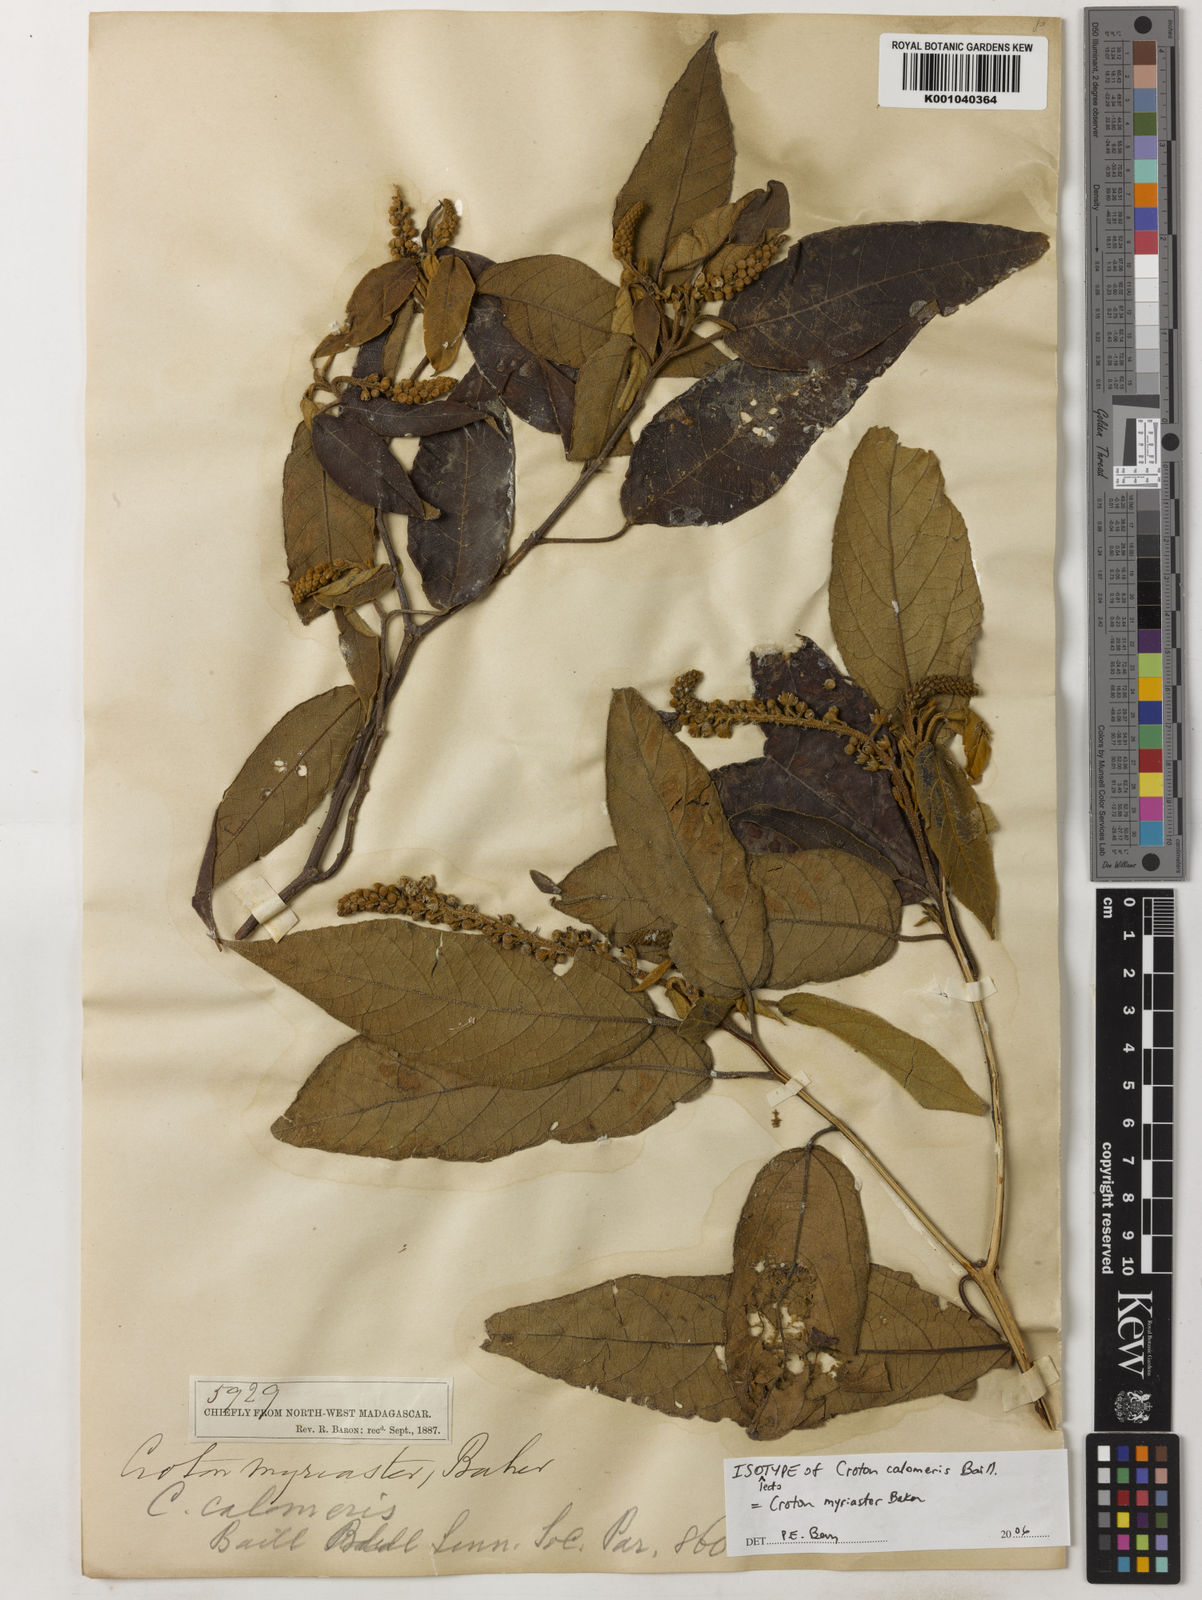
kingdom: Plantae
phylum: Tracheophyta
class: Magnoliopsida
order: Malpighiales
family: Euphorbiaceae
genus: Croton
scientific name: Croton myriaster
